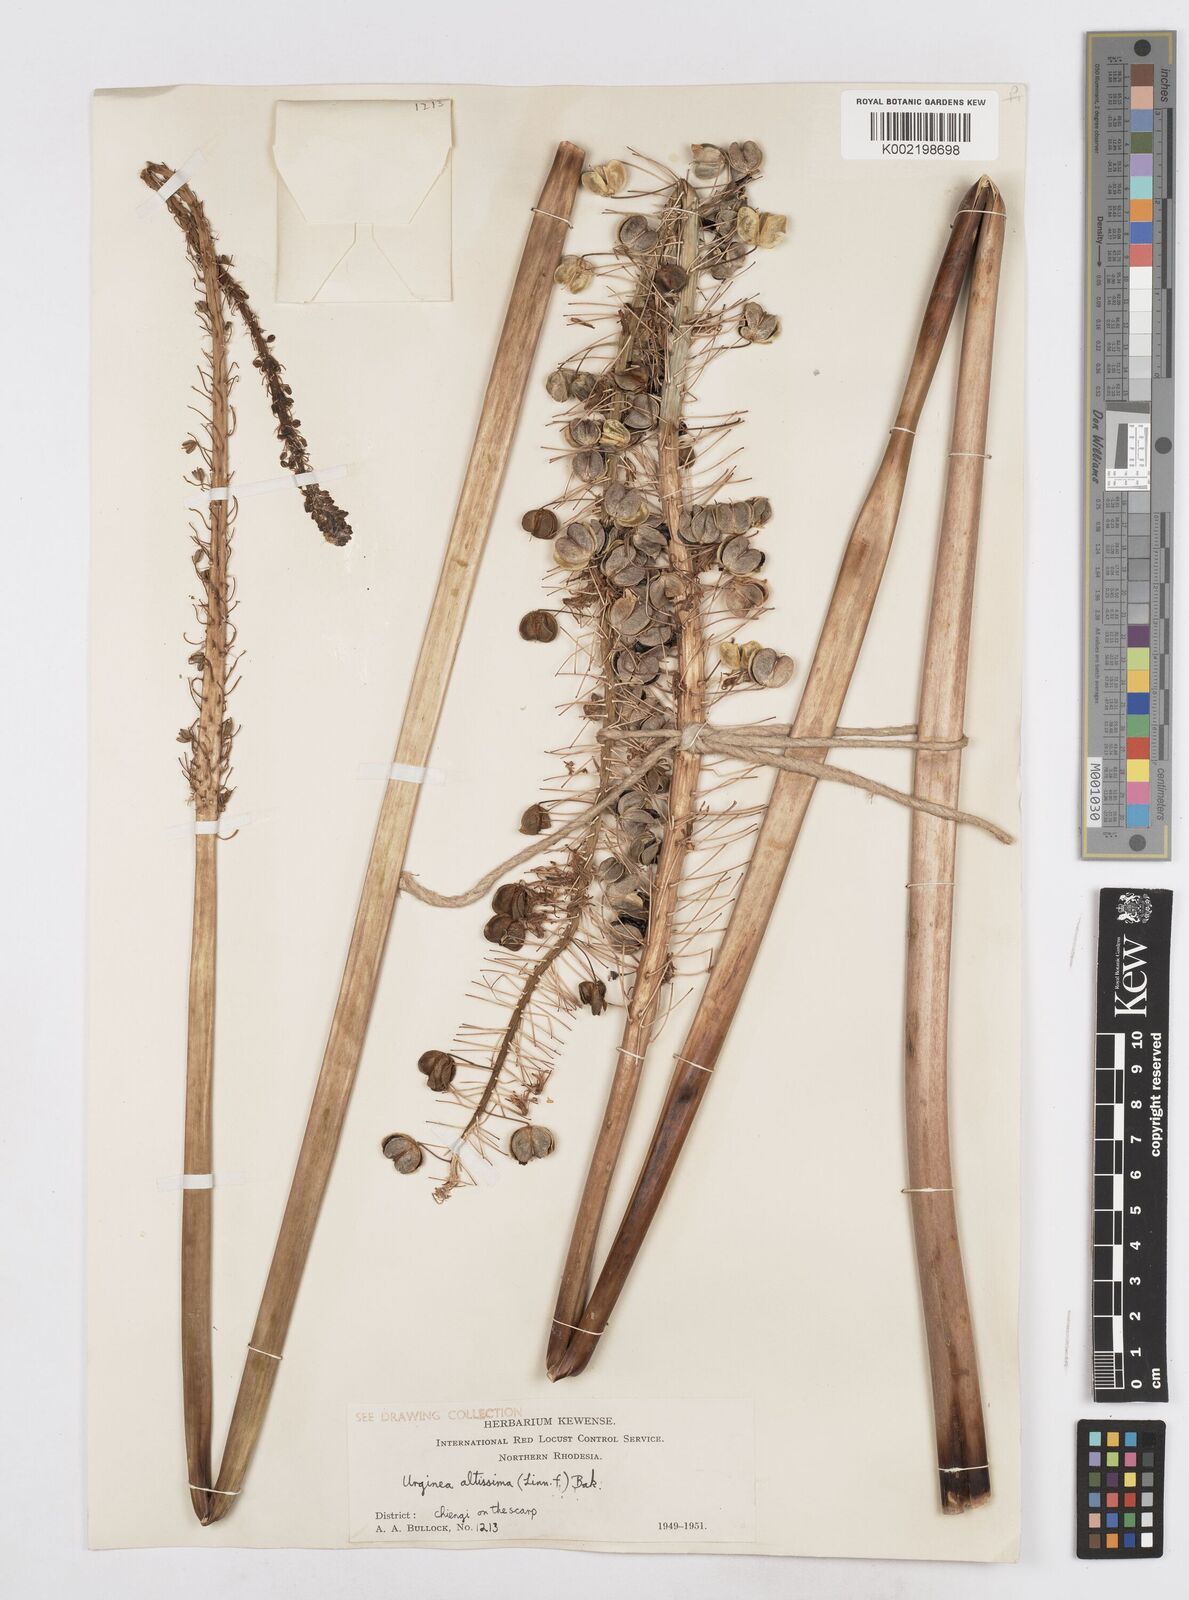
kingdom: Plantae
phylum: Tracheophyta
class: Liliopsida
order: Asparagales
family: Asparagaceae
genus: Drimia
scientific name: Drimia
